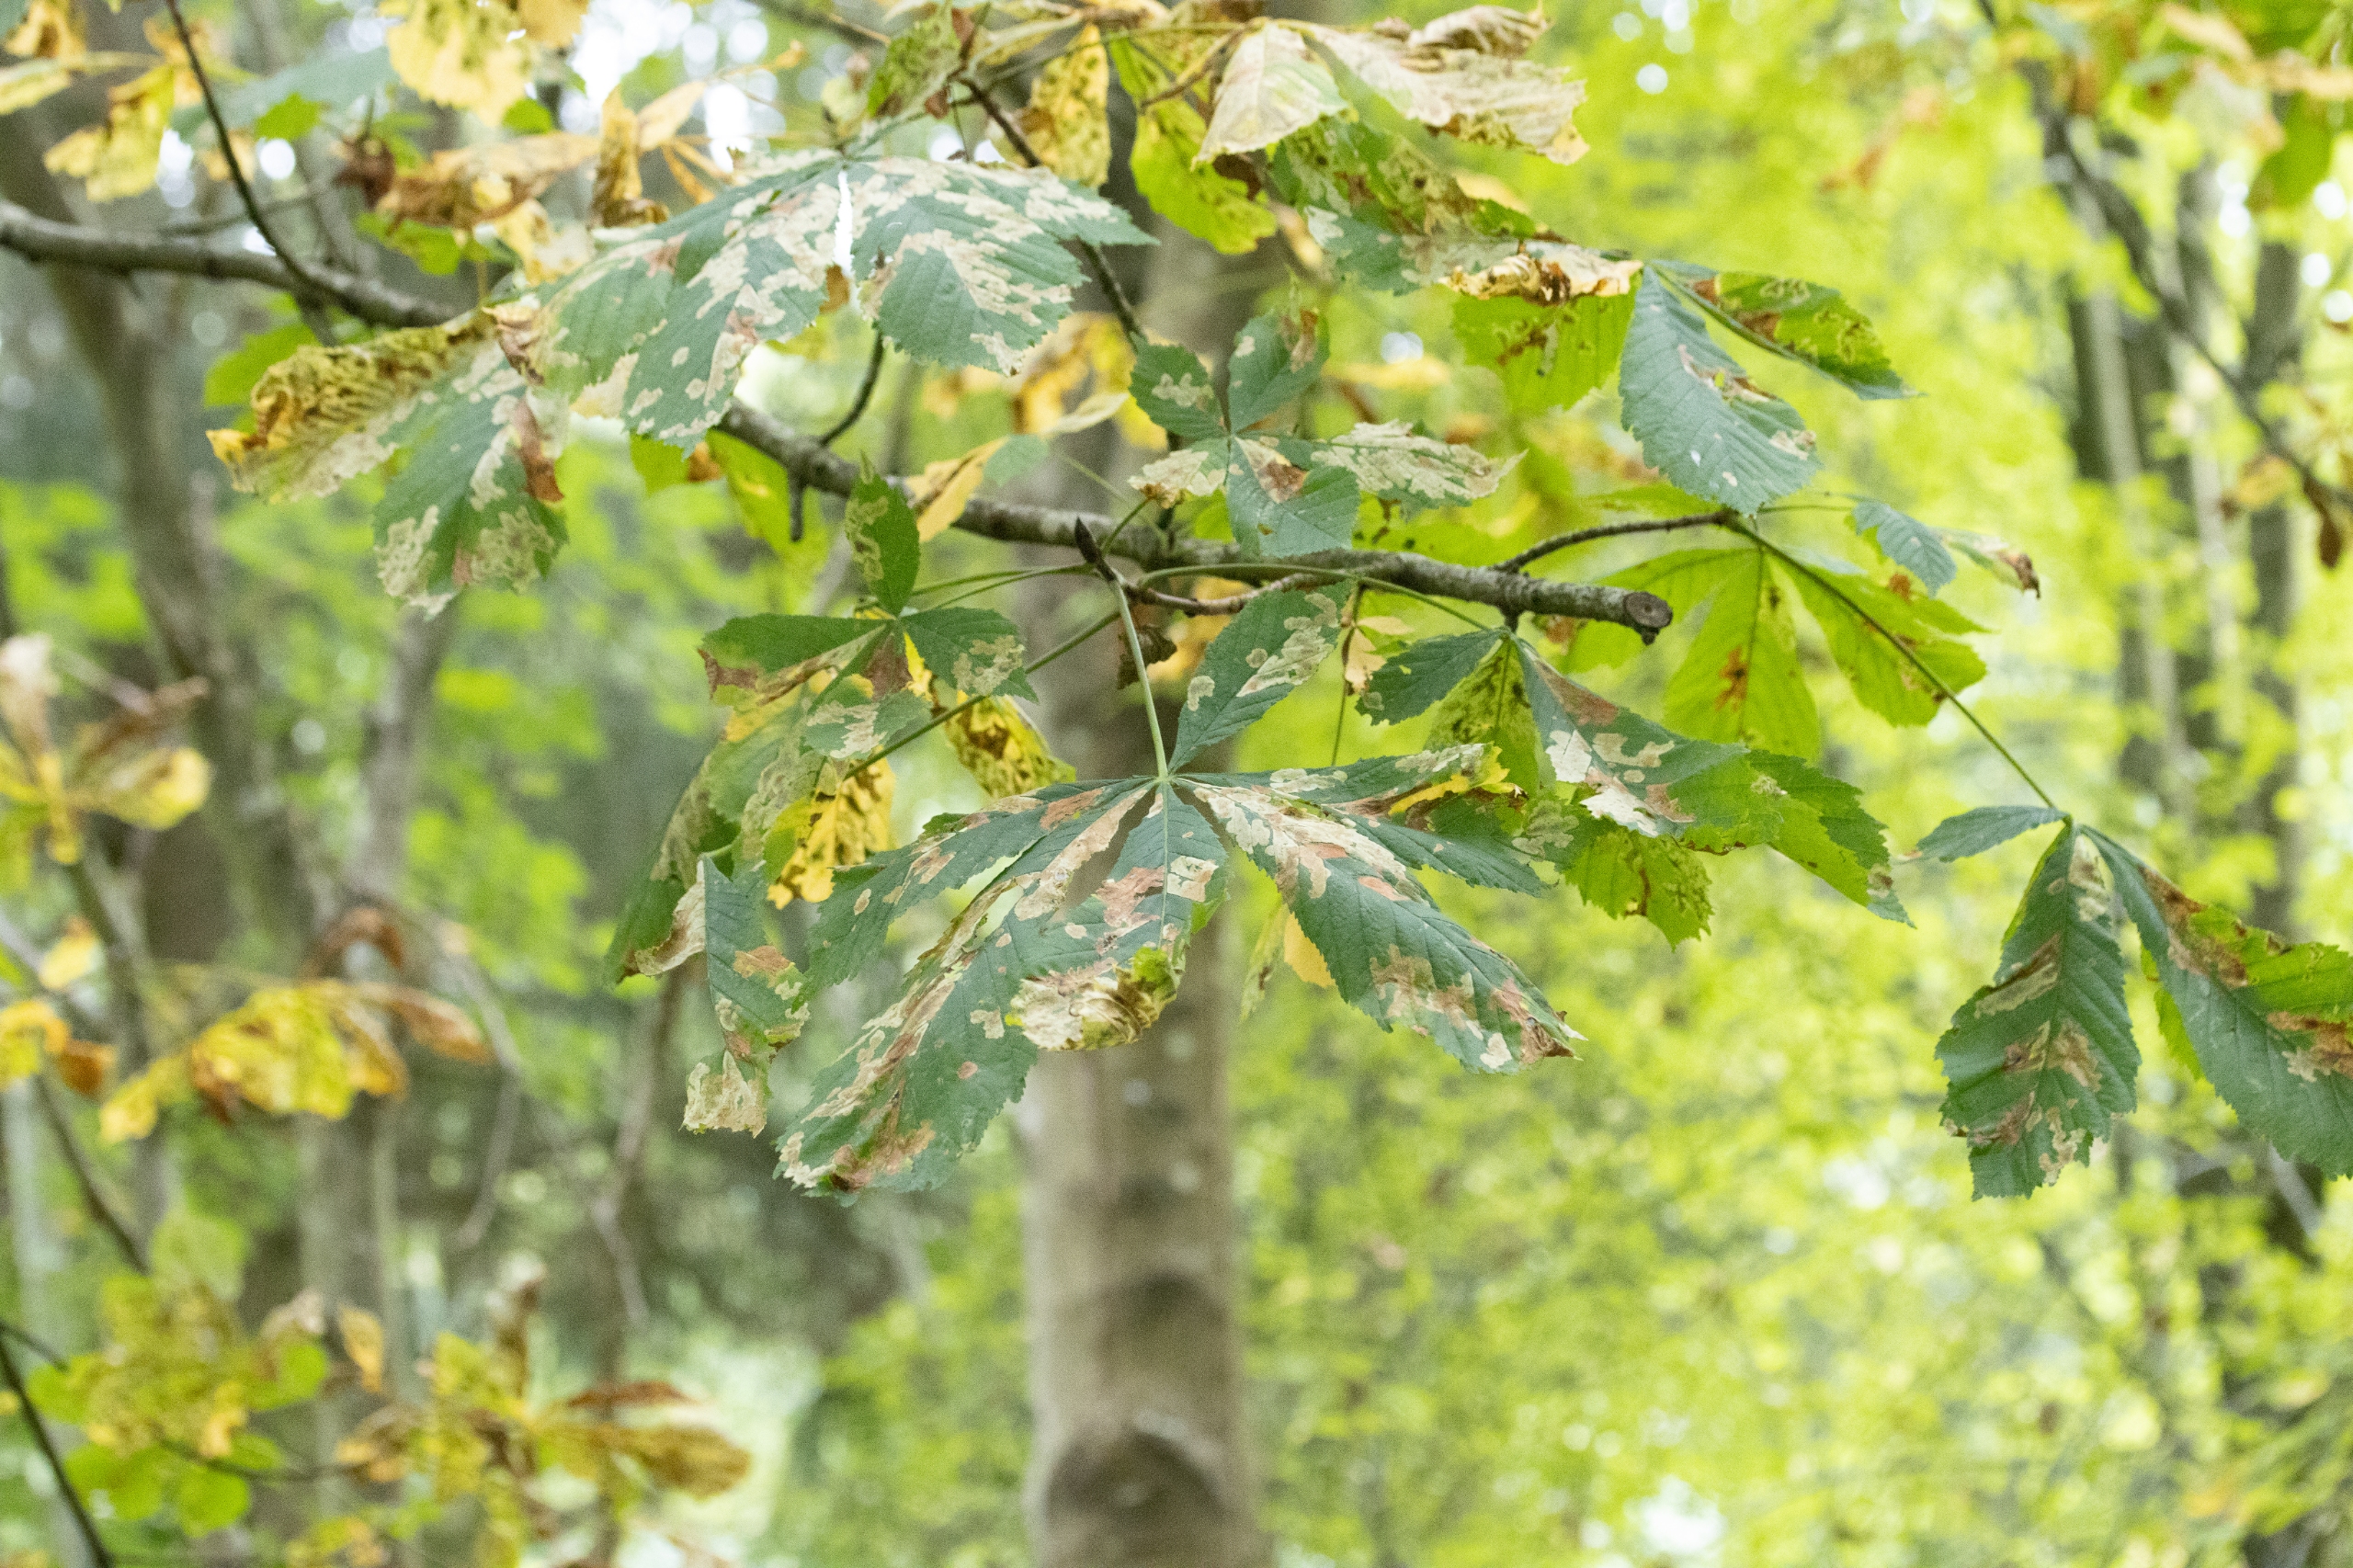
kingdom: Plantae
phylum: Tracheophyta
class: Magnoliopsida
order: Sapindales
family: Sapindaceae
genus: Aesculus
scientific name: Aesculus hippocastanum
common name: Hestekastanie
